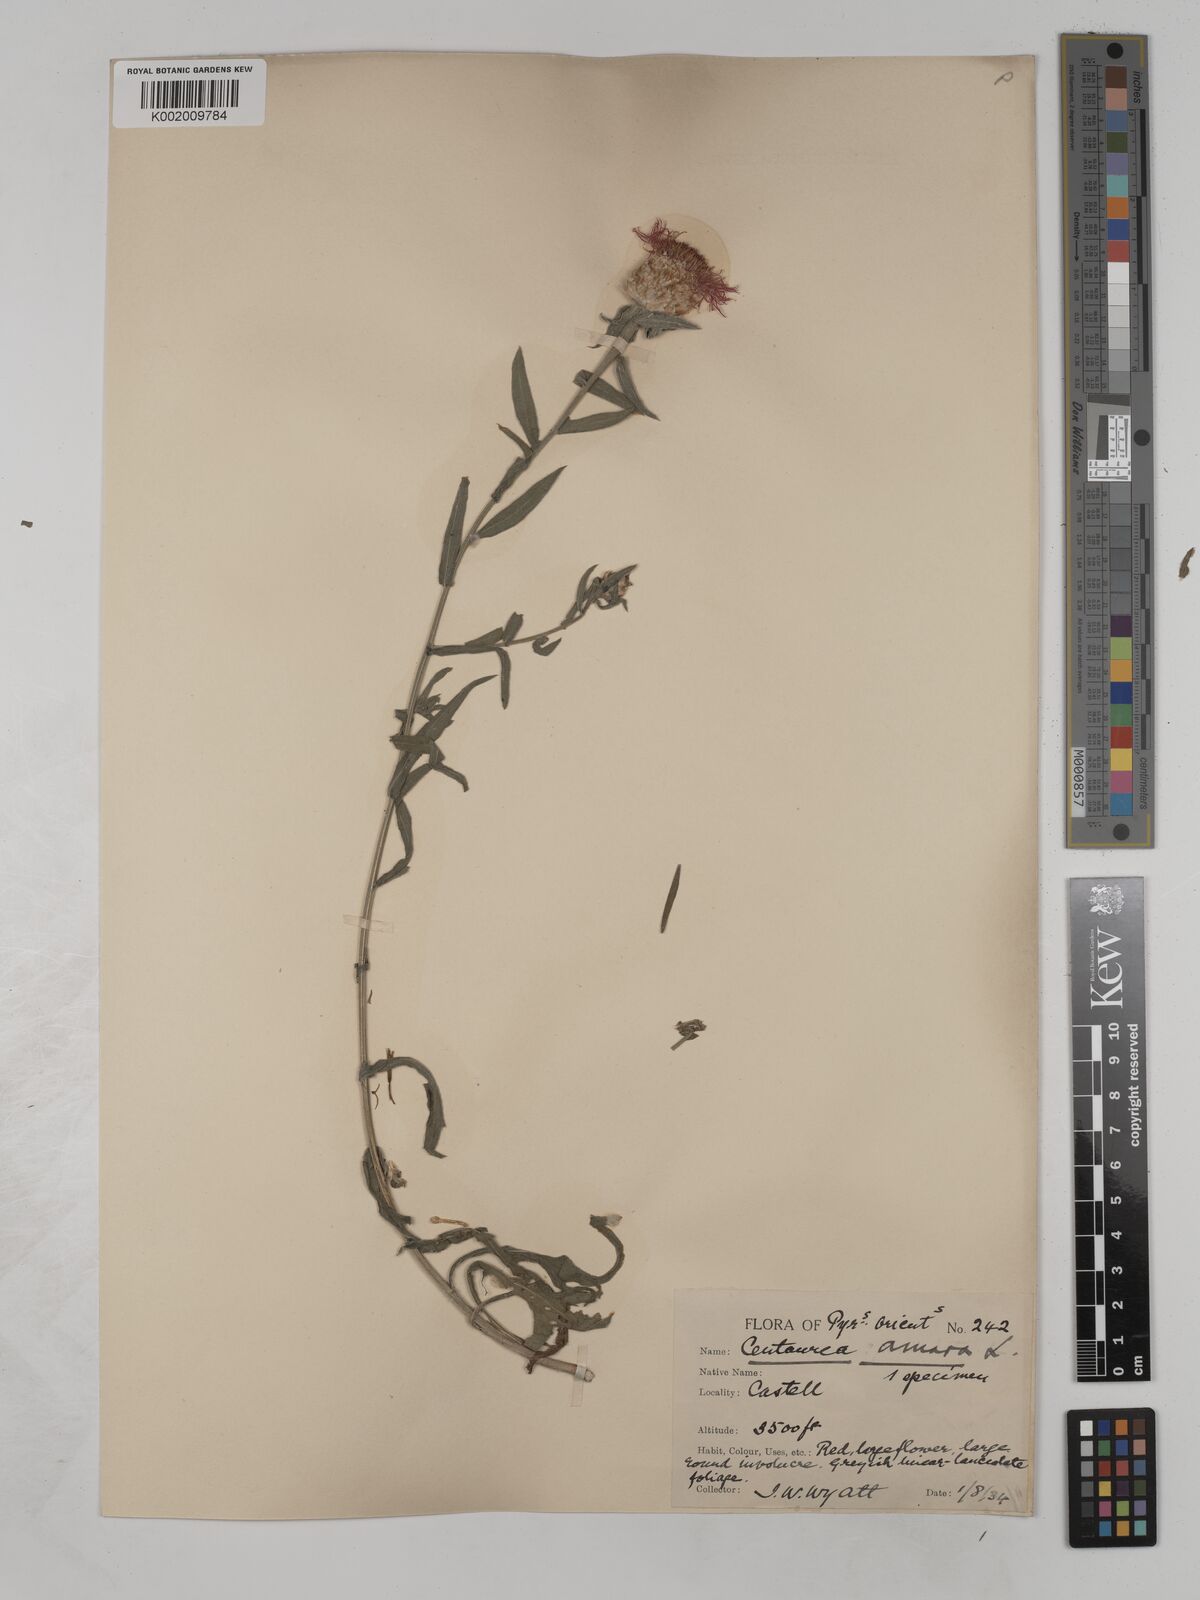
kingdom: Plantae
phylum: Tracheophyta
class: Magnoliopsida
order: Asterales
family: Asteraceae
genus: Centaurea
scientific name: Centaurea timbalii
